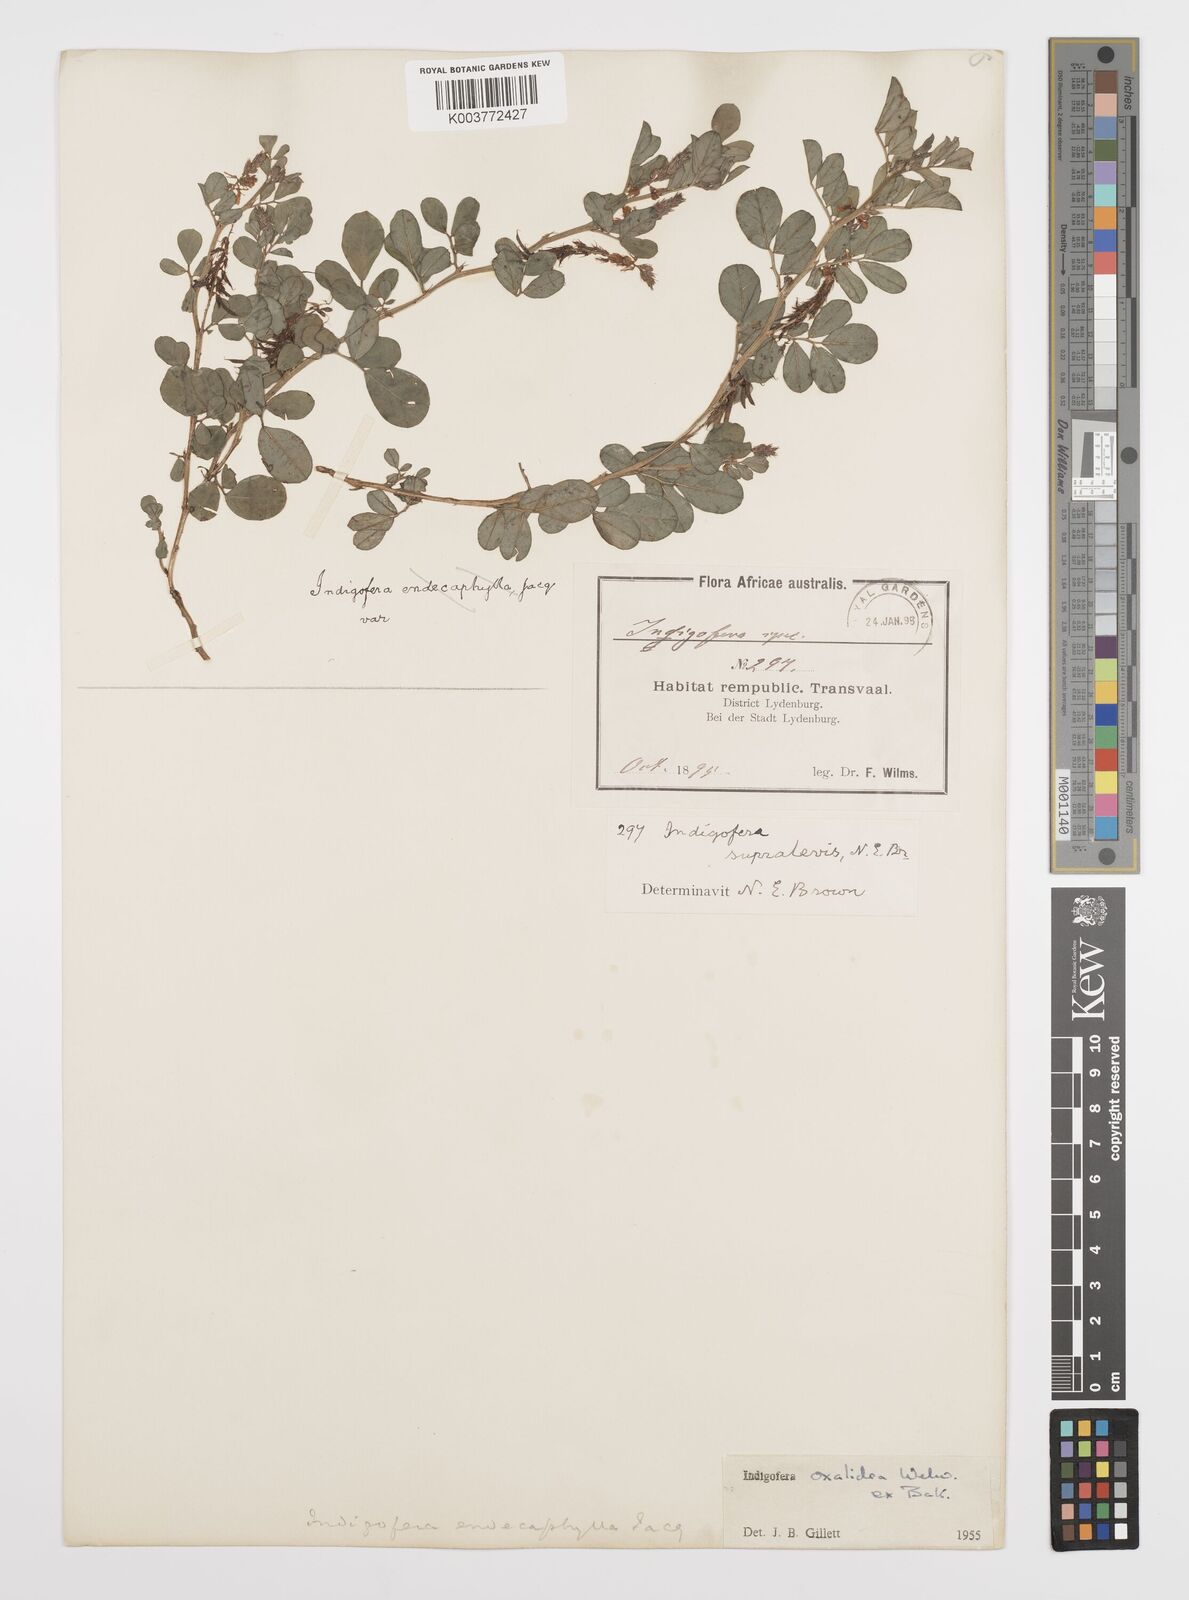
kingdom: Plantae
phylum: Tracheophyta
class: Magnoliopsida
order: Fabales
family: Fabaceae
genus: Indigofera
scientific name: Indigofera oxalidea
